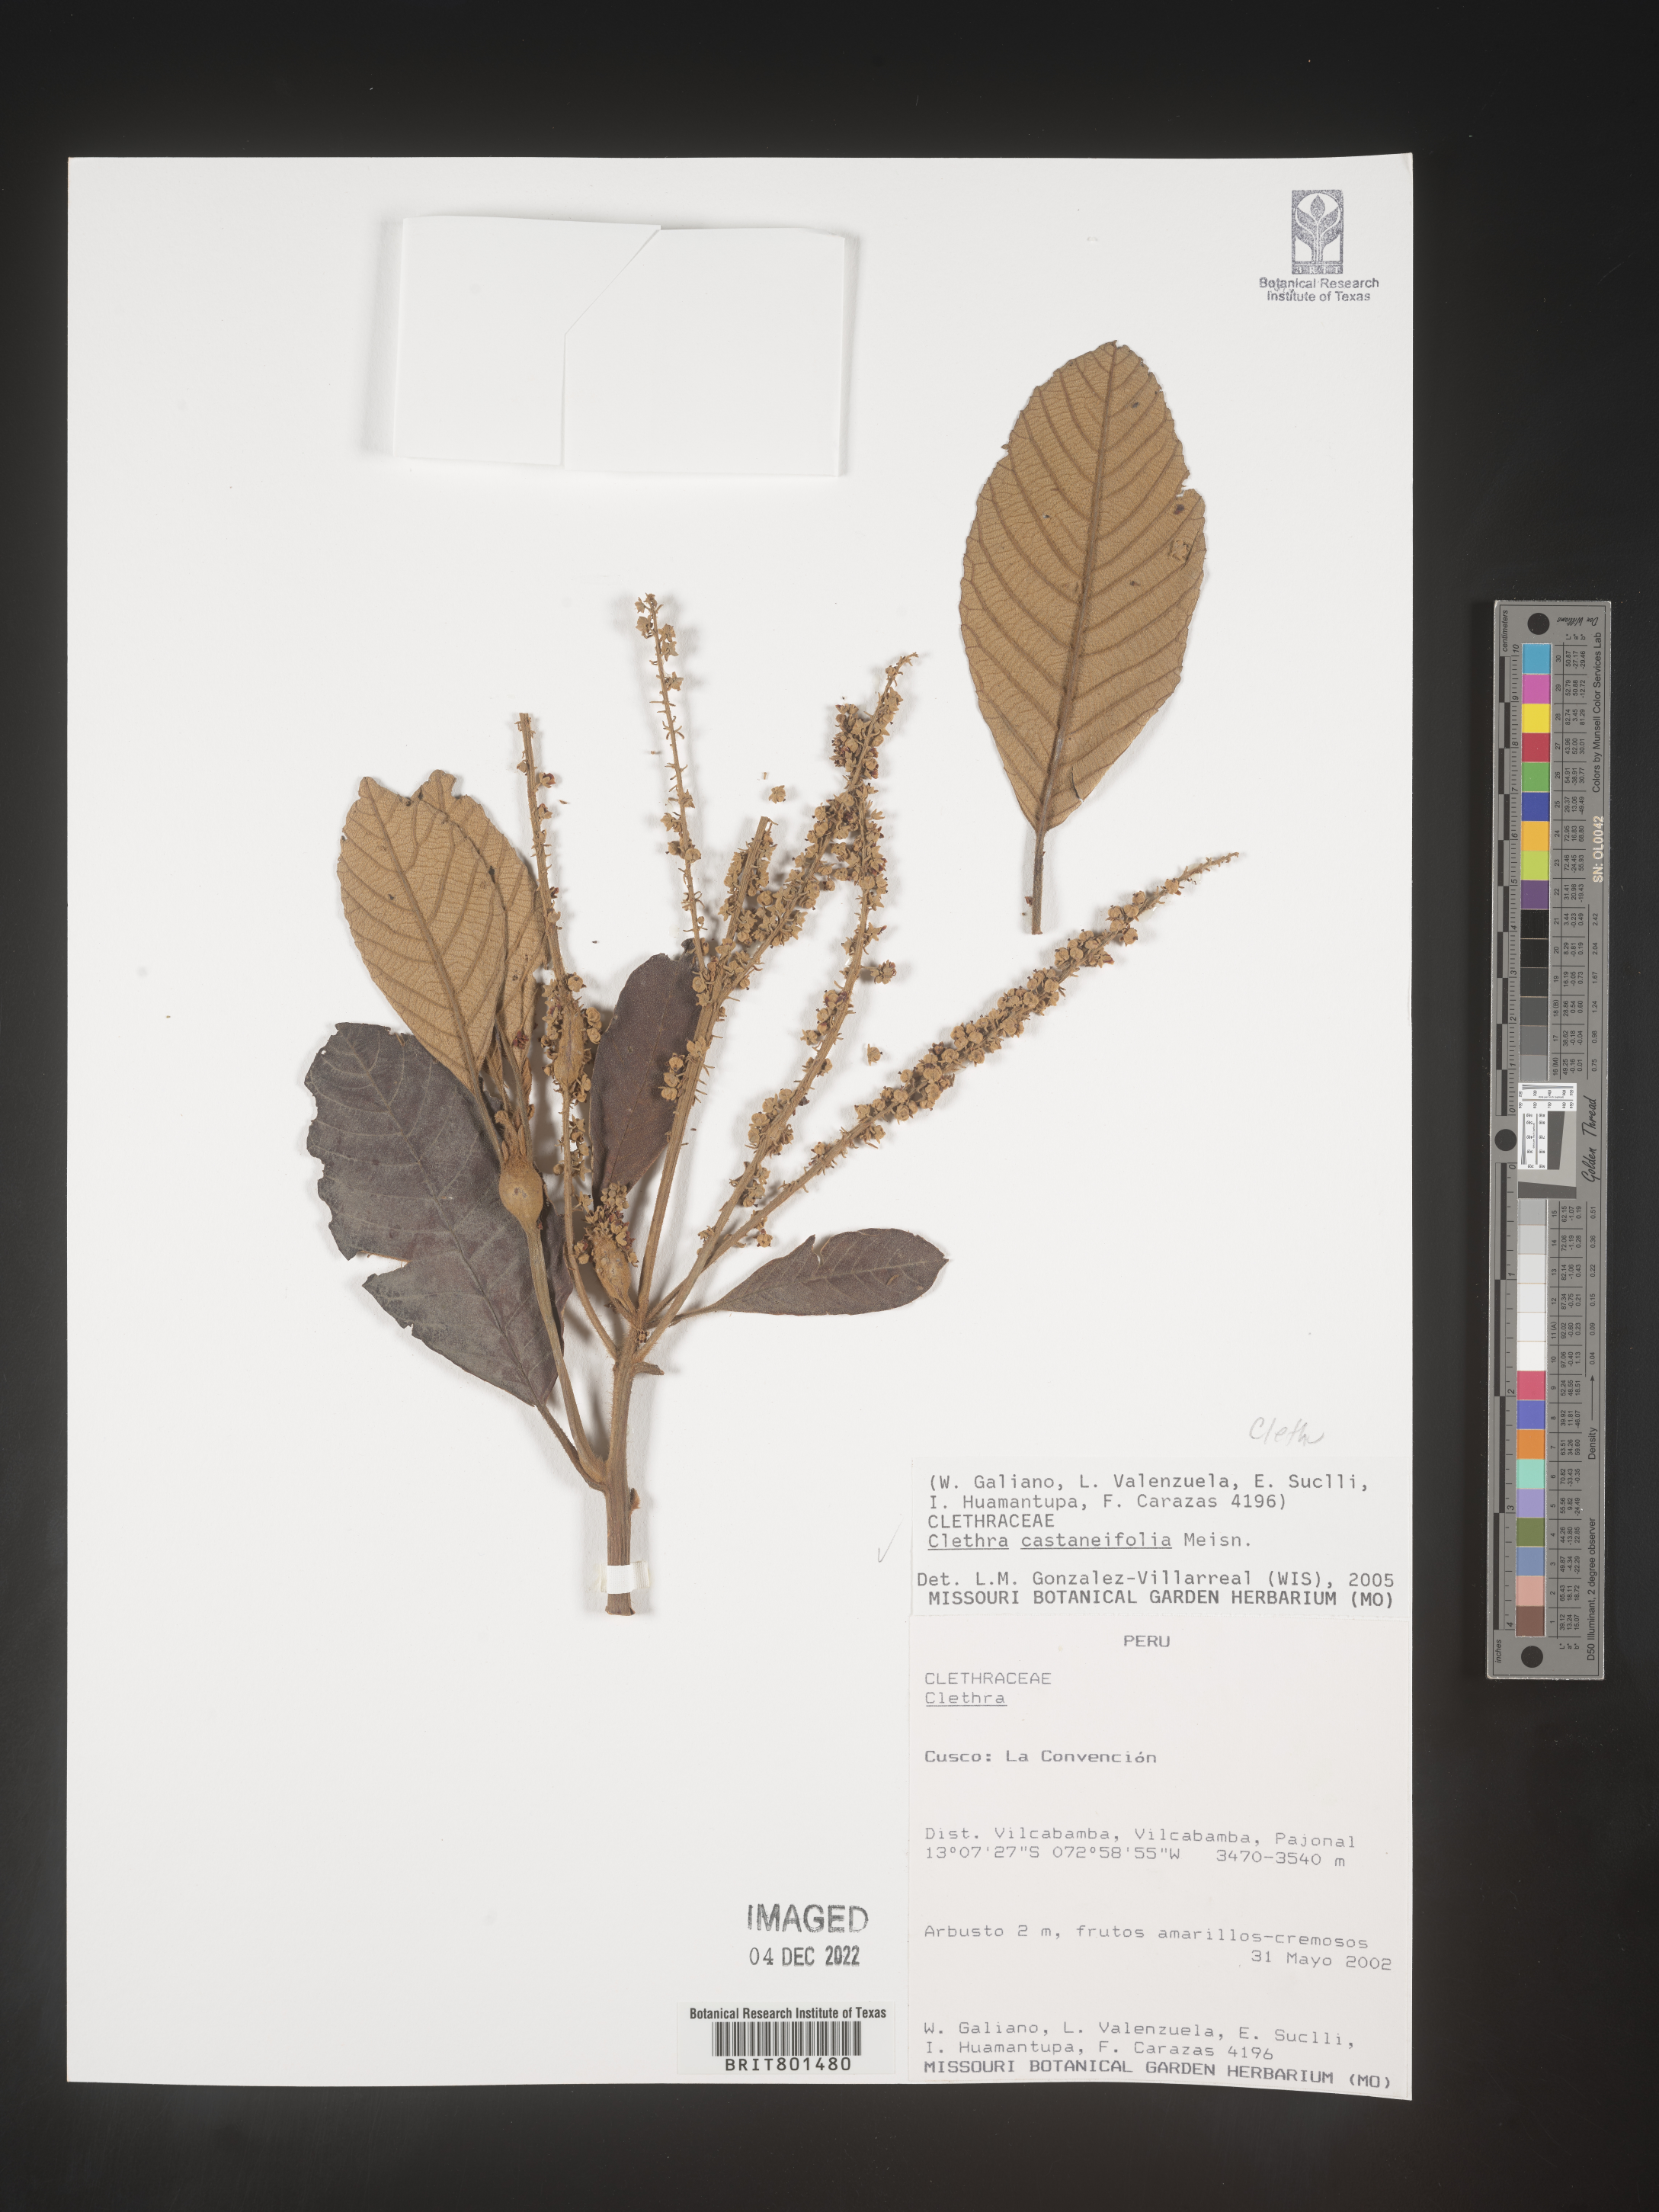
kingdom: Plantae
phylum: Tracheophyta
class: Magnoliopsida
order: Ericales
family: Clethraceae
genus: Clethra
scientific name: Clethra
